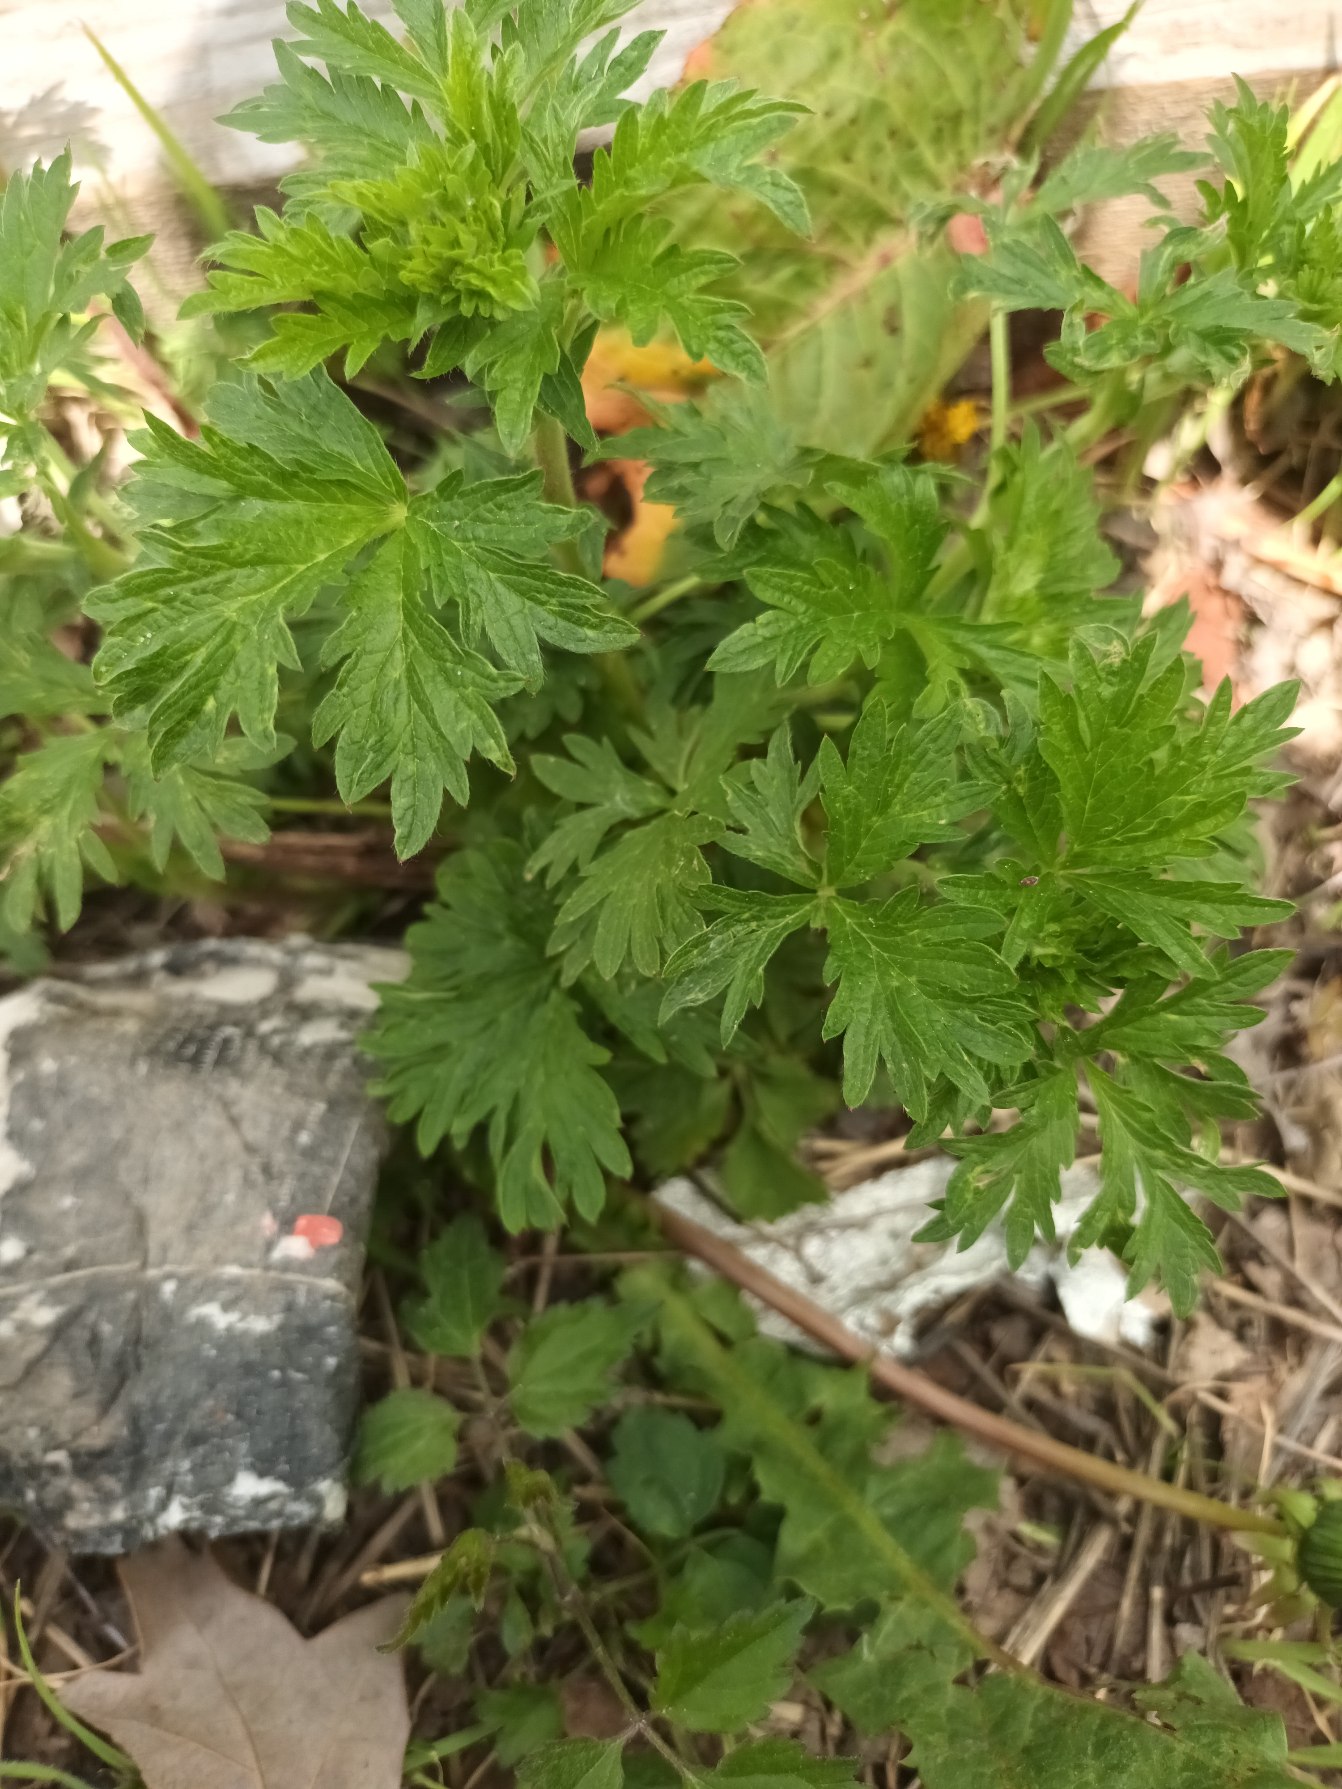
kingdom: Plantae
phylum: Tracheophyta
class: Magnoliopsida
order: Rosales
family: Rosaceae
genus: Potentilla
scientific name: Potentilla intermedia
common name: Småblomstret potentil
